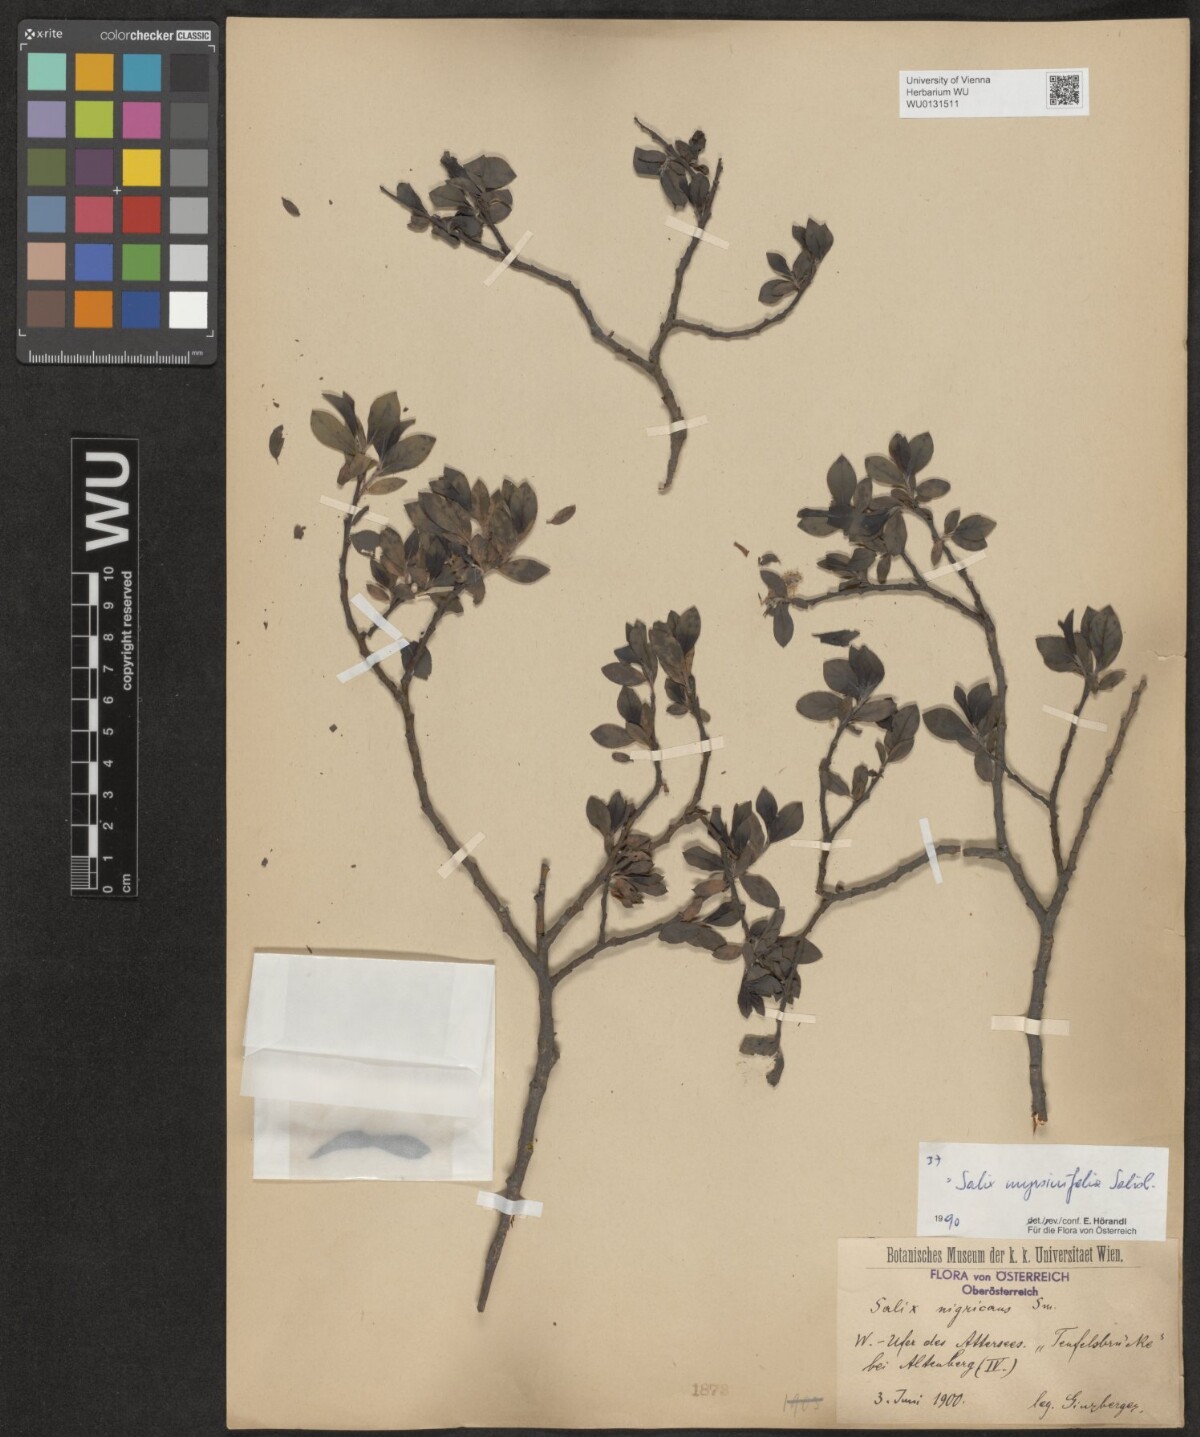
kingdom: Plantae
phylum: Tracheophyta
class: Magnoliopsida
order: Malpighiales
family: Salicaceae
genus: Salix
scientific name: Salix myrsinifolia
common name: Dark-leaved willow
